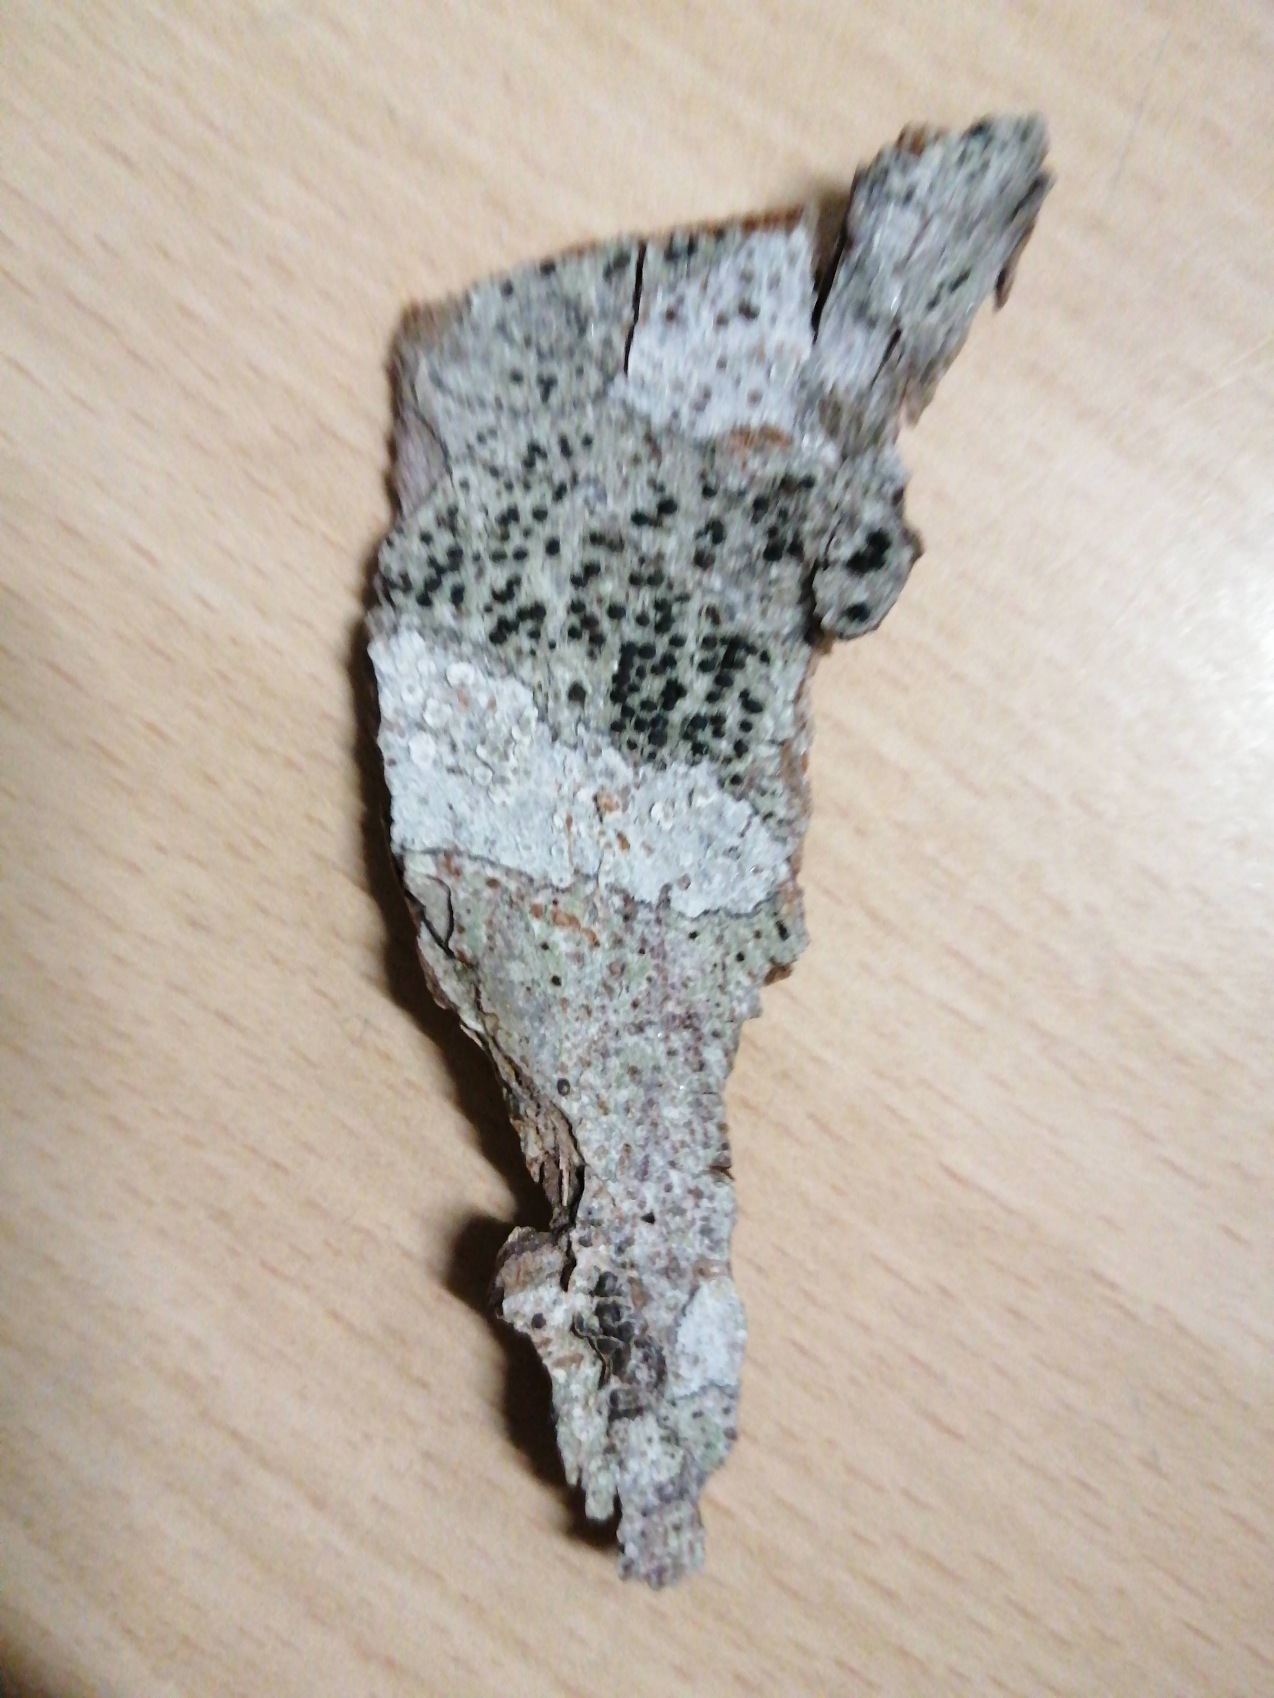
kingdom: Fungi
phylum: Ascomycota
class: Lecanoromycetes
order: Lecanorales
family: Lecanoraceae
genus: Lecidella
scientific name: Lecidella elaeochroma
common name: Grågrøn skivelav
